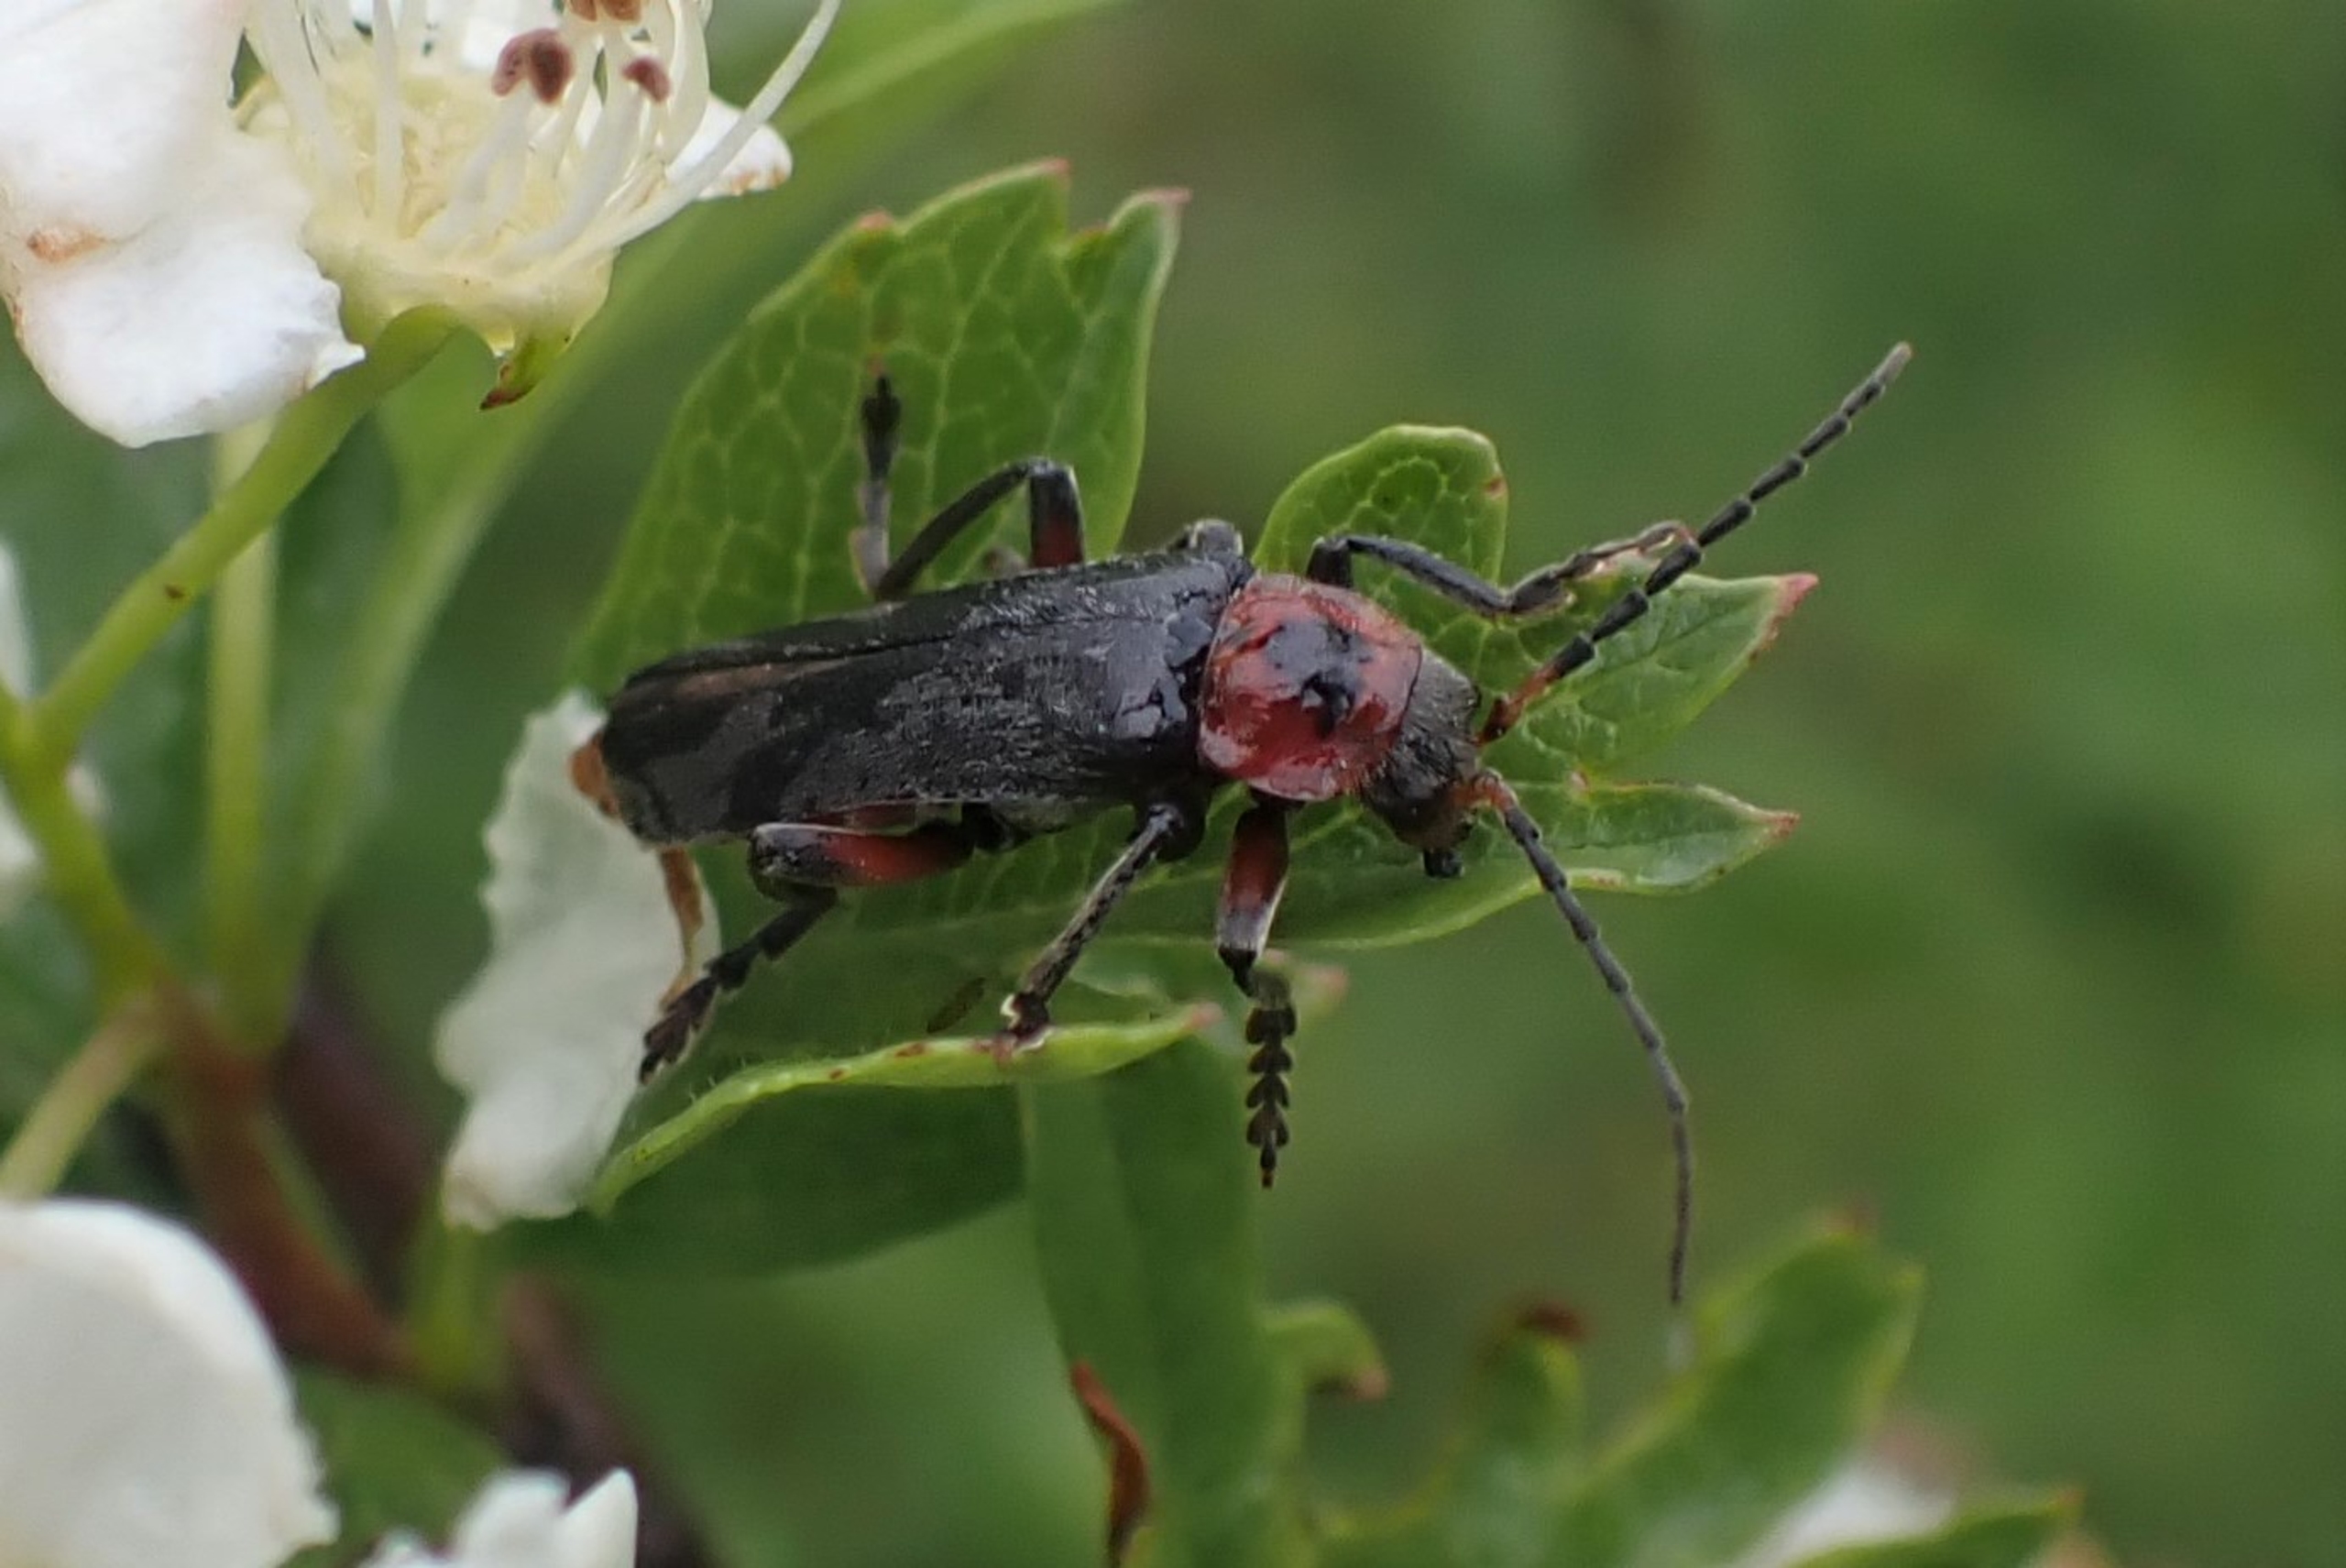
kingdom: Animalia
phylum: Arthropoda
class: Insecta
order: Coleoptera
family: Cantharidae
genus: Cantharis
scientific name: Cantharis rustica
